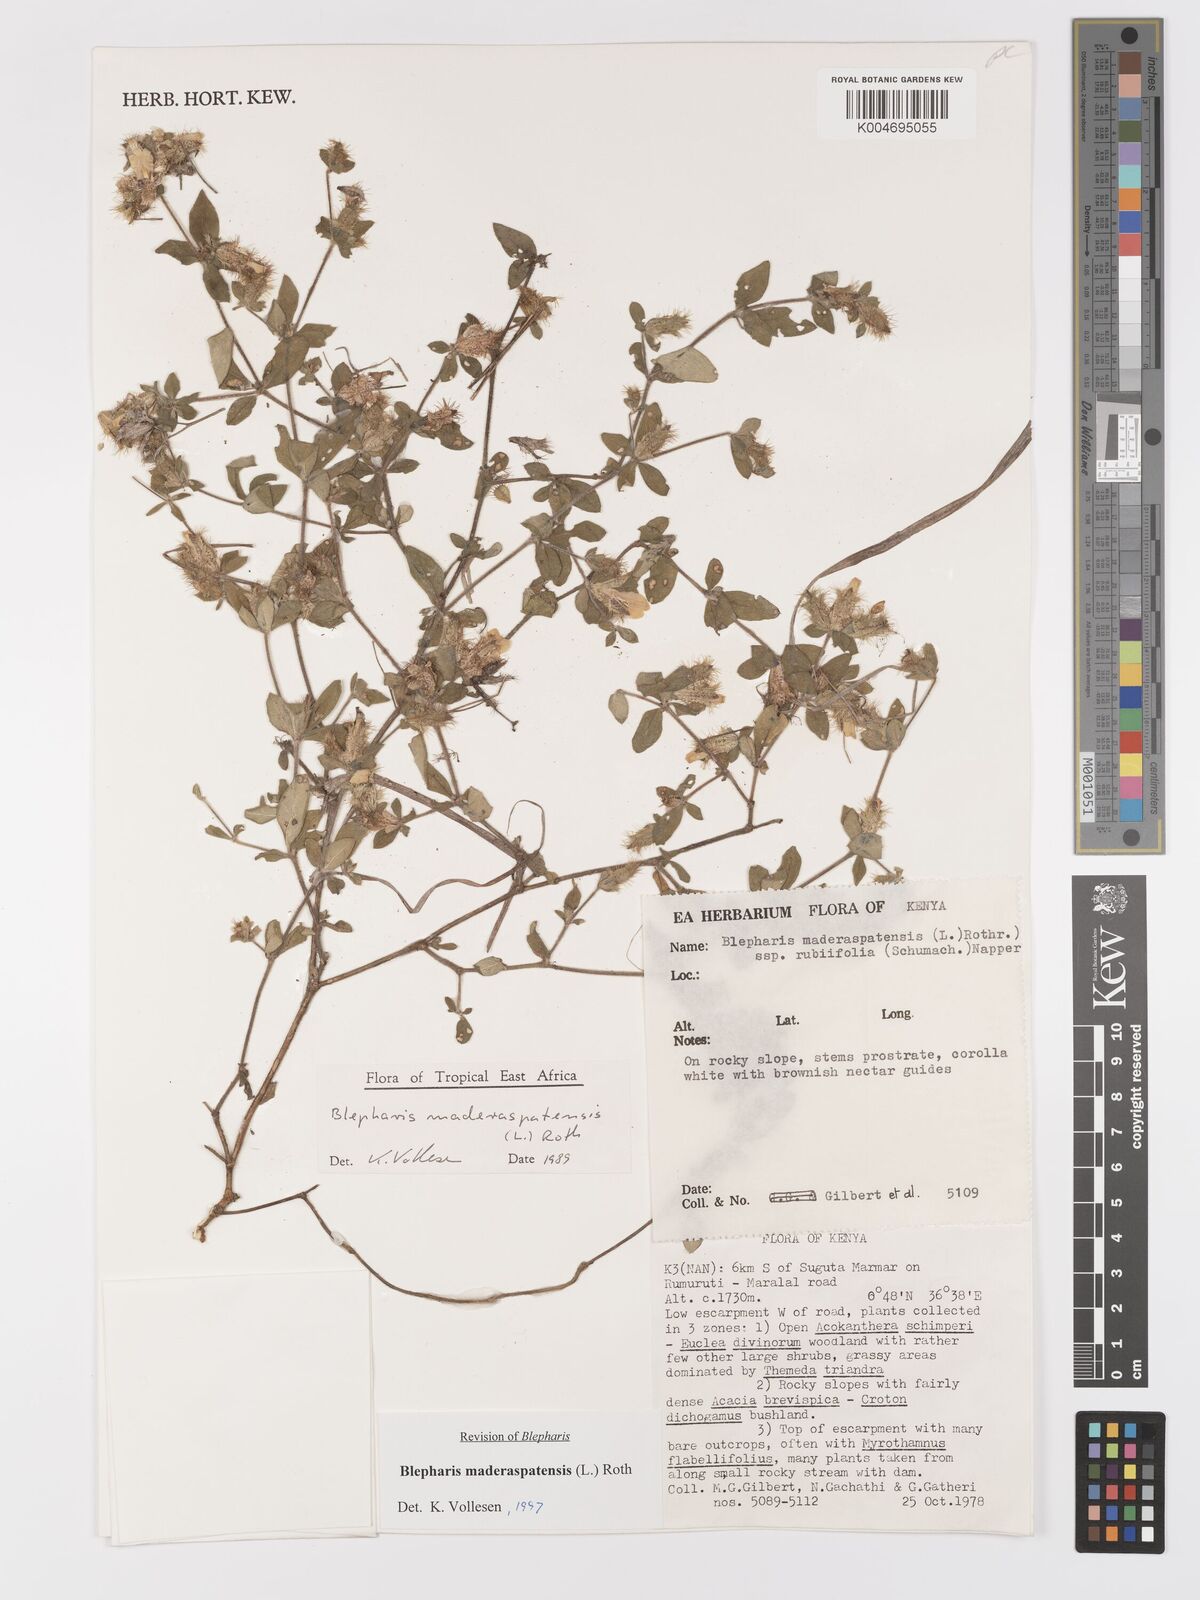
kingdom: Plantae
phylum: Tracheophyta
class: Magnoliopsida
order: Lamiales
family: Acanthaceae
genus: Blepharis
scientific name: Blepharis maderaspatensis
